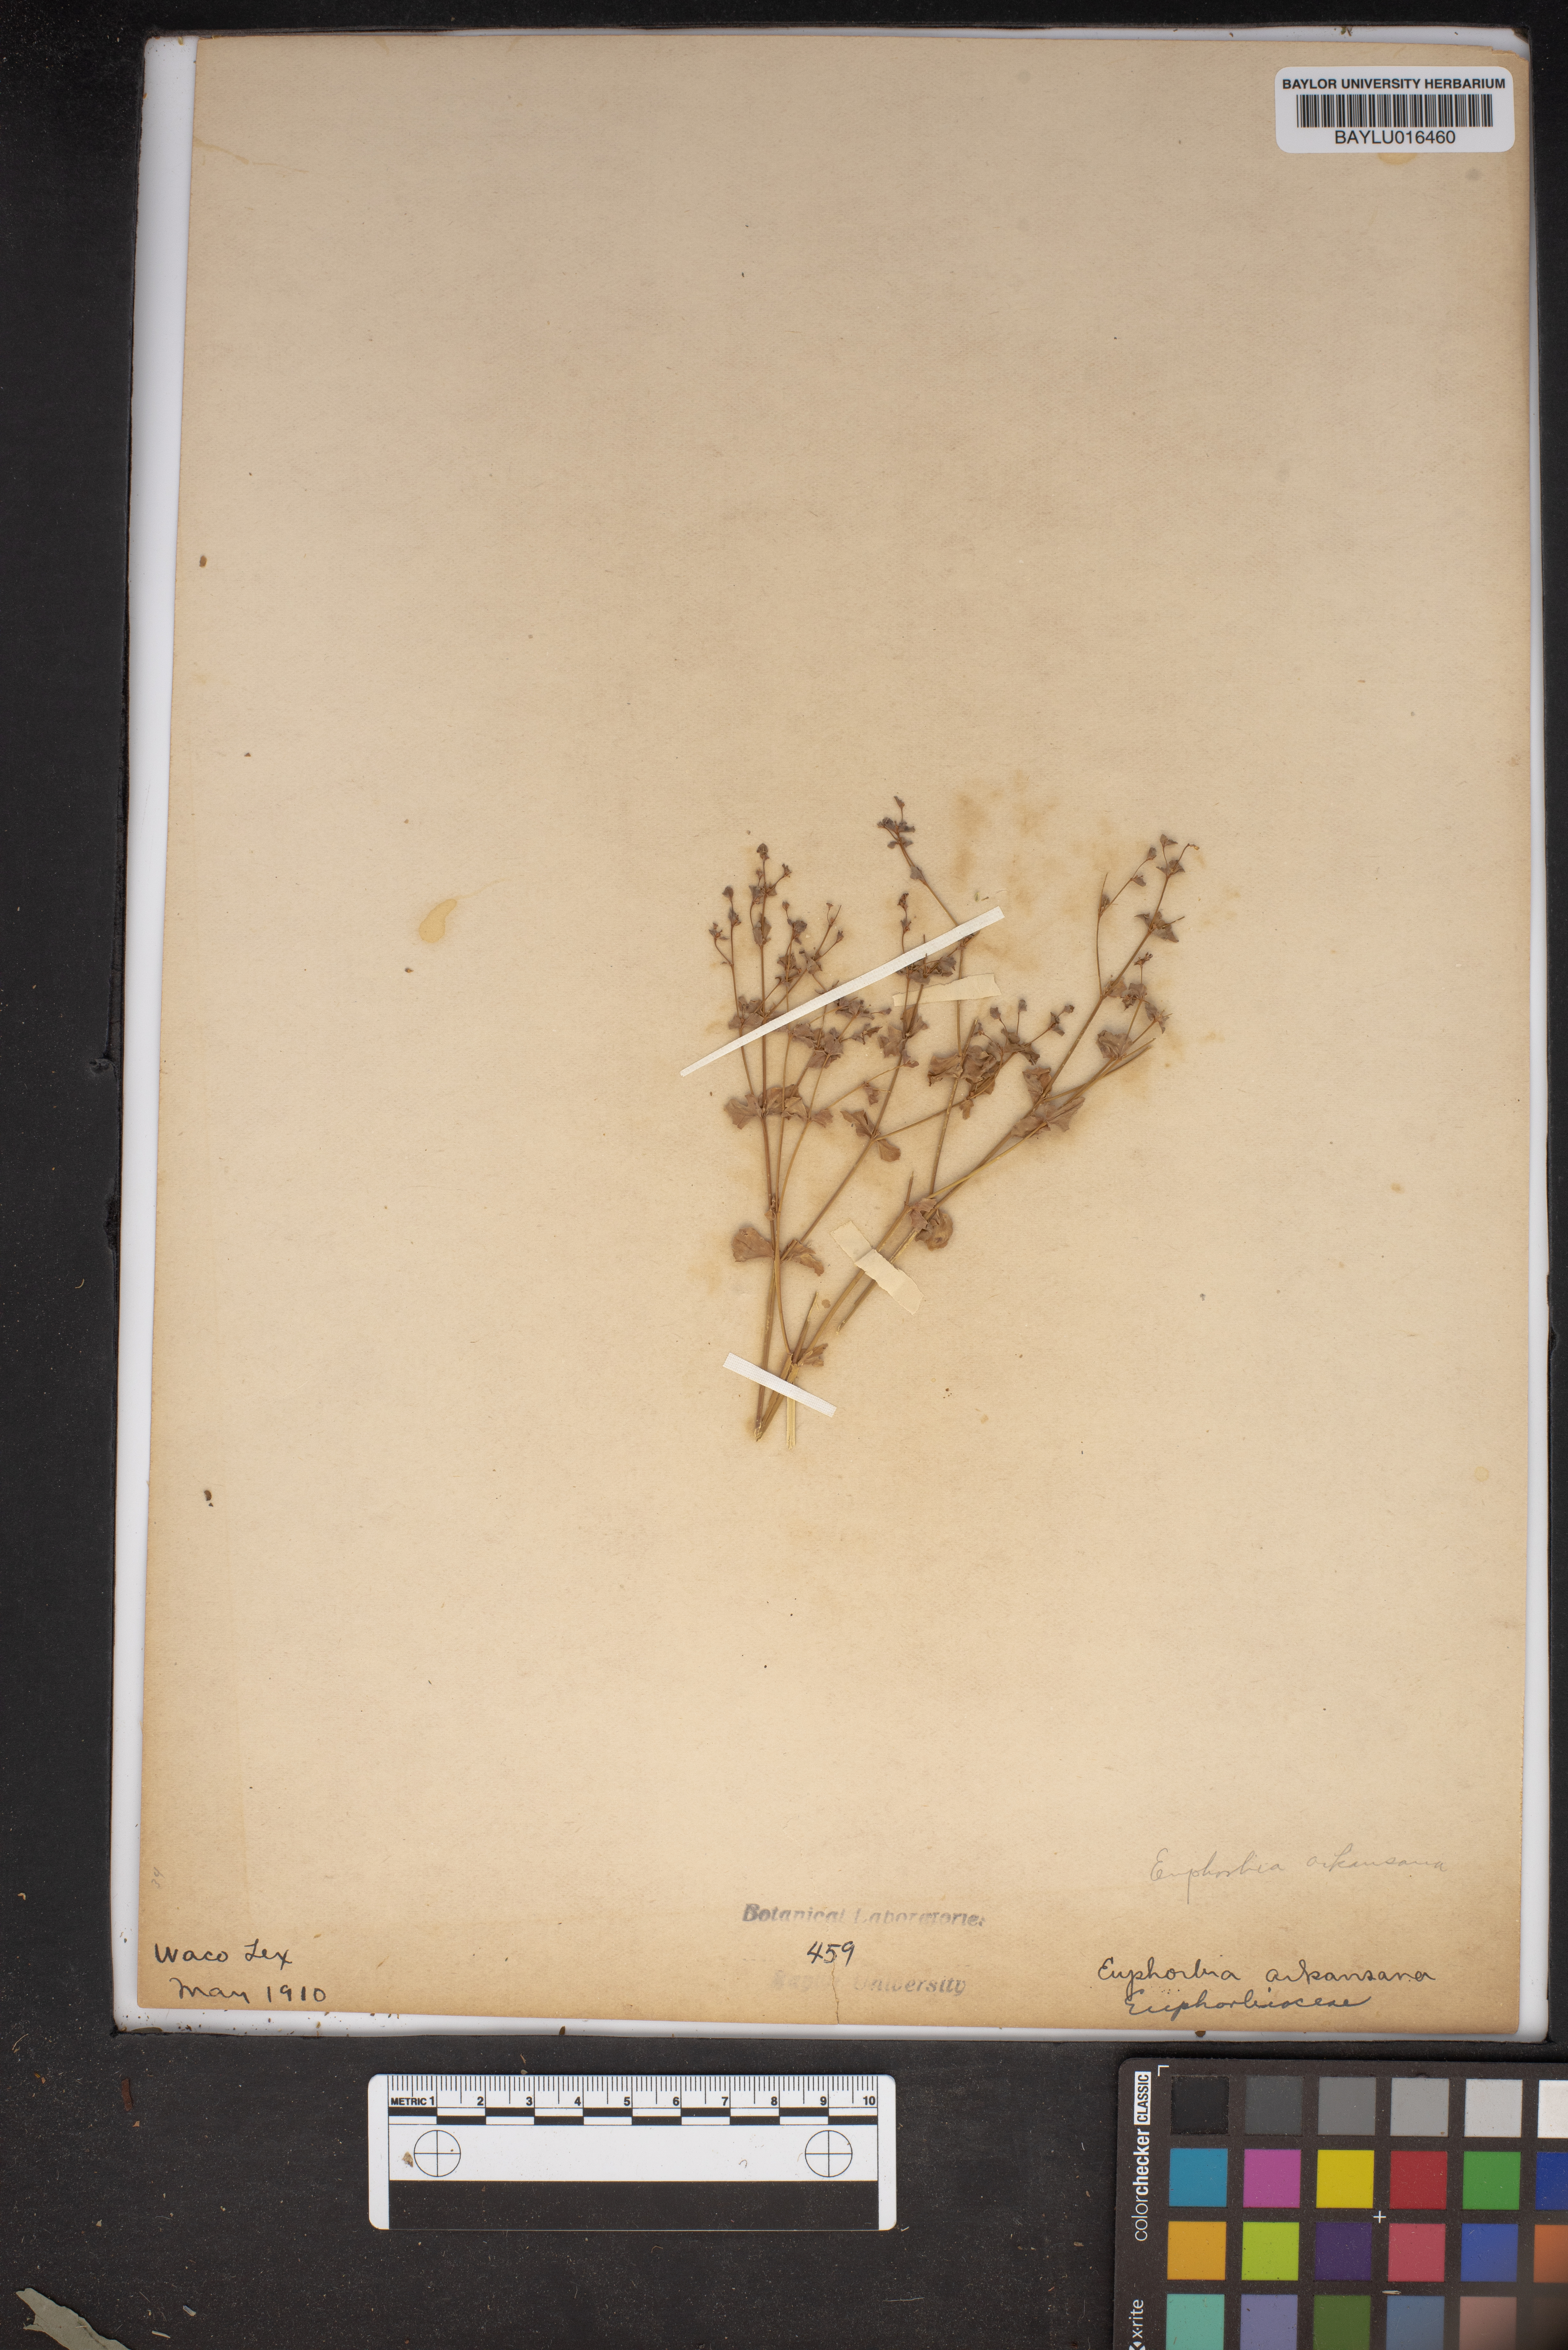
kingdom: Plantae
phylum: Tracheophyta
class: Magnoliopsida
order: Malpighiales
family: Euphorbiaceae
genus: Euphorbia
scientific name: Euphorbia spathulata
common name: Blunt spurge
